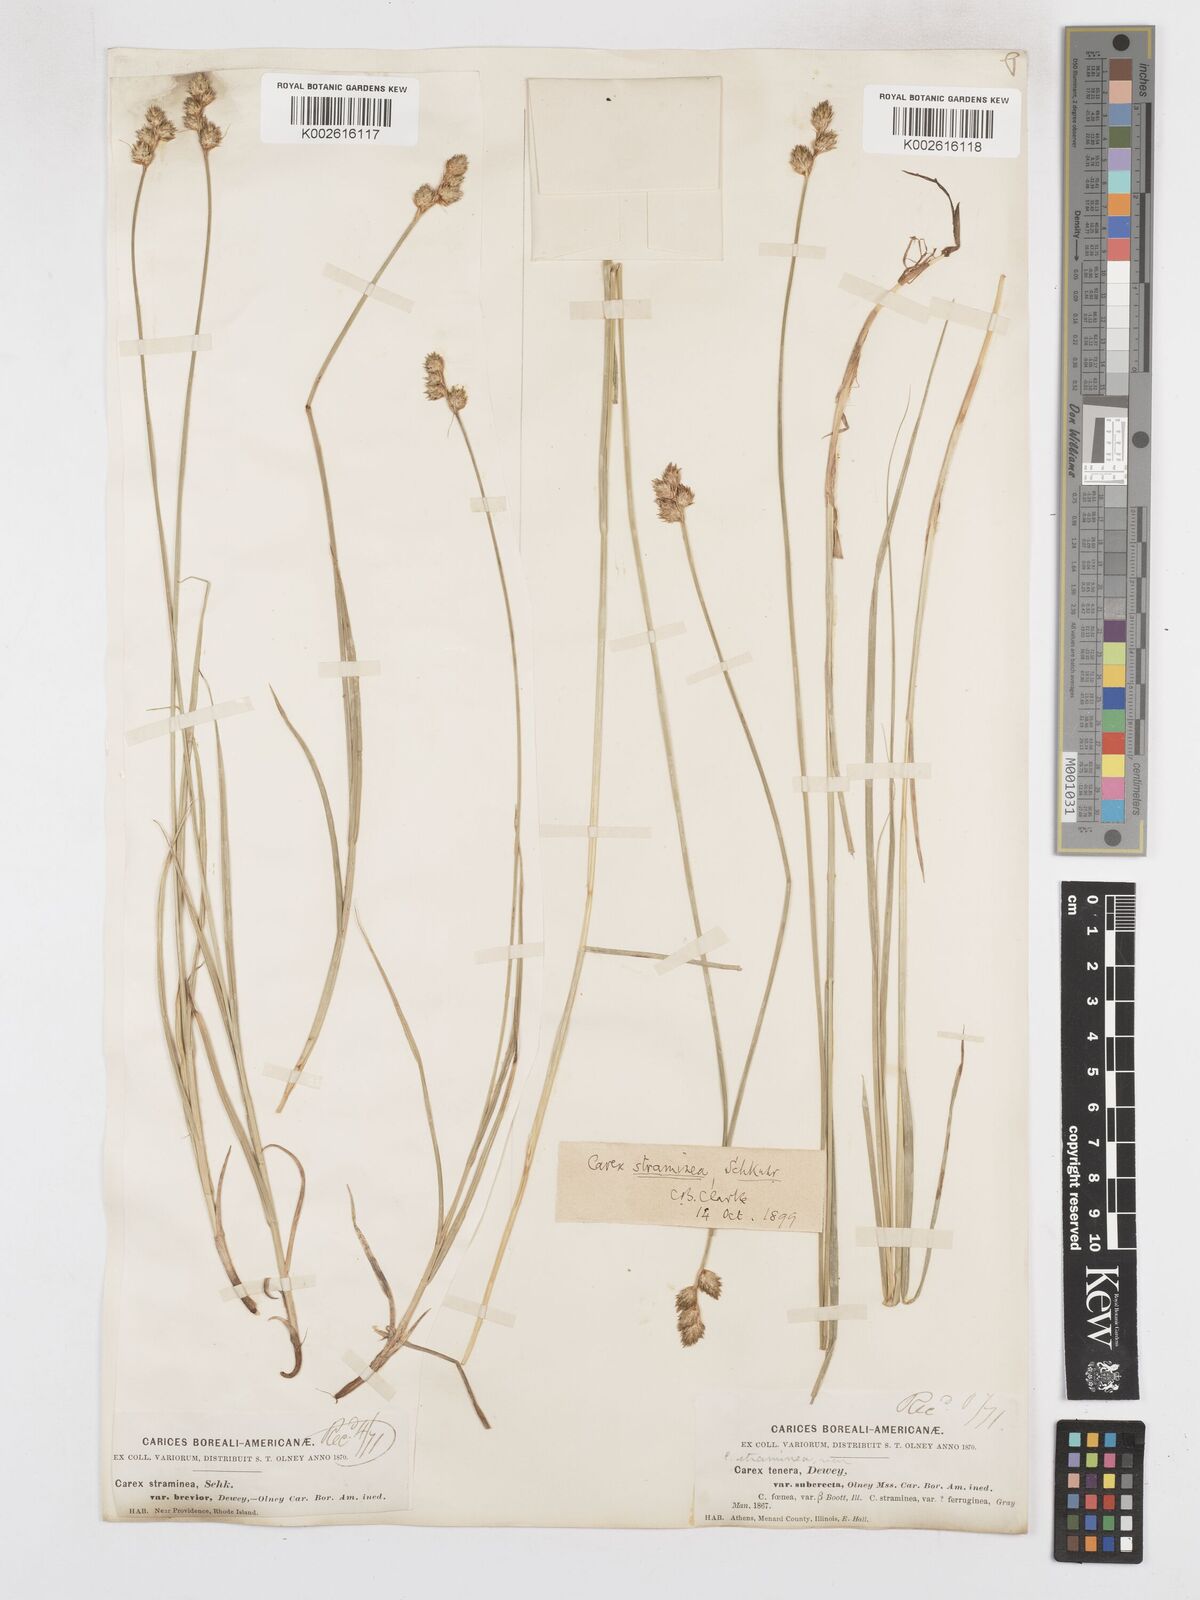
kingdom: Plantae
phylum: Tracheophyta
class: Liliopsida
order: Poales
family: Cyperaceae
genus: Carex
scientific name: Carex brevior
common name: Brevior sedge
